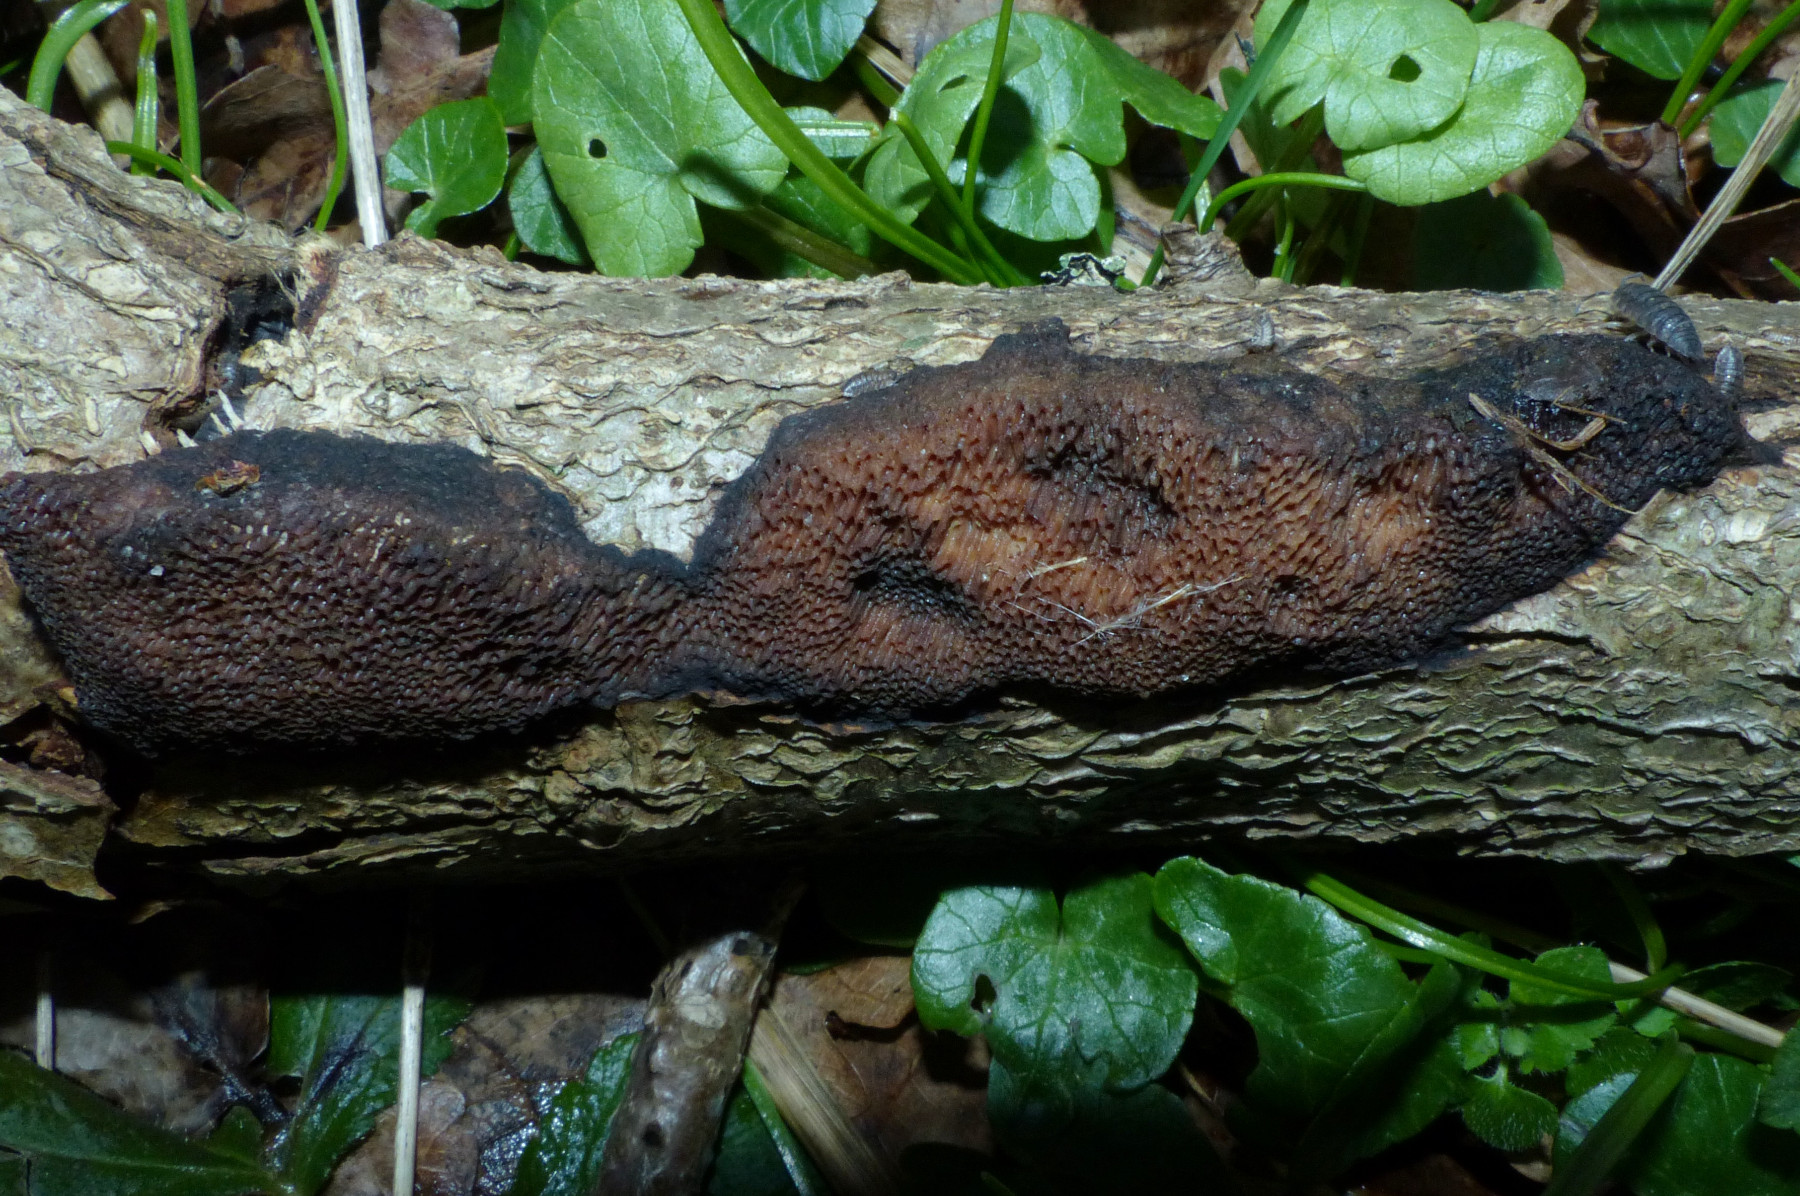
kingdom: Fungi
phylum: Basidiomycota
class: Agaricomycetes
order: Polyporales
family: Polyporaceae
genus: Szczepkamyces
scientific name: Szczepkamyces campestris
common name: hasselporesvamp
